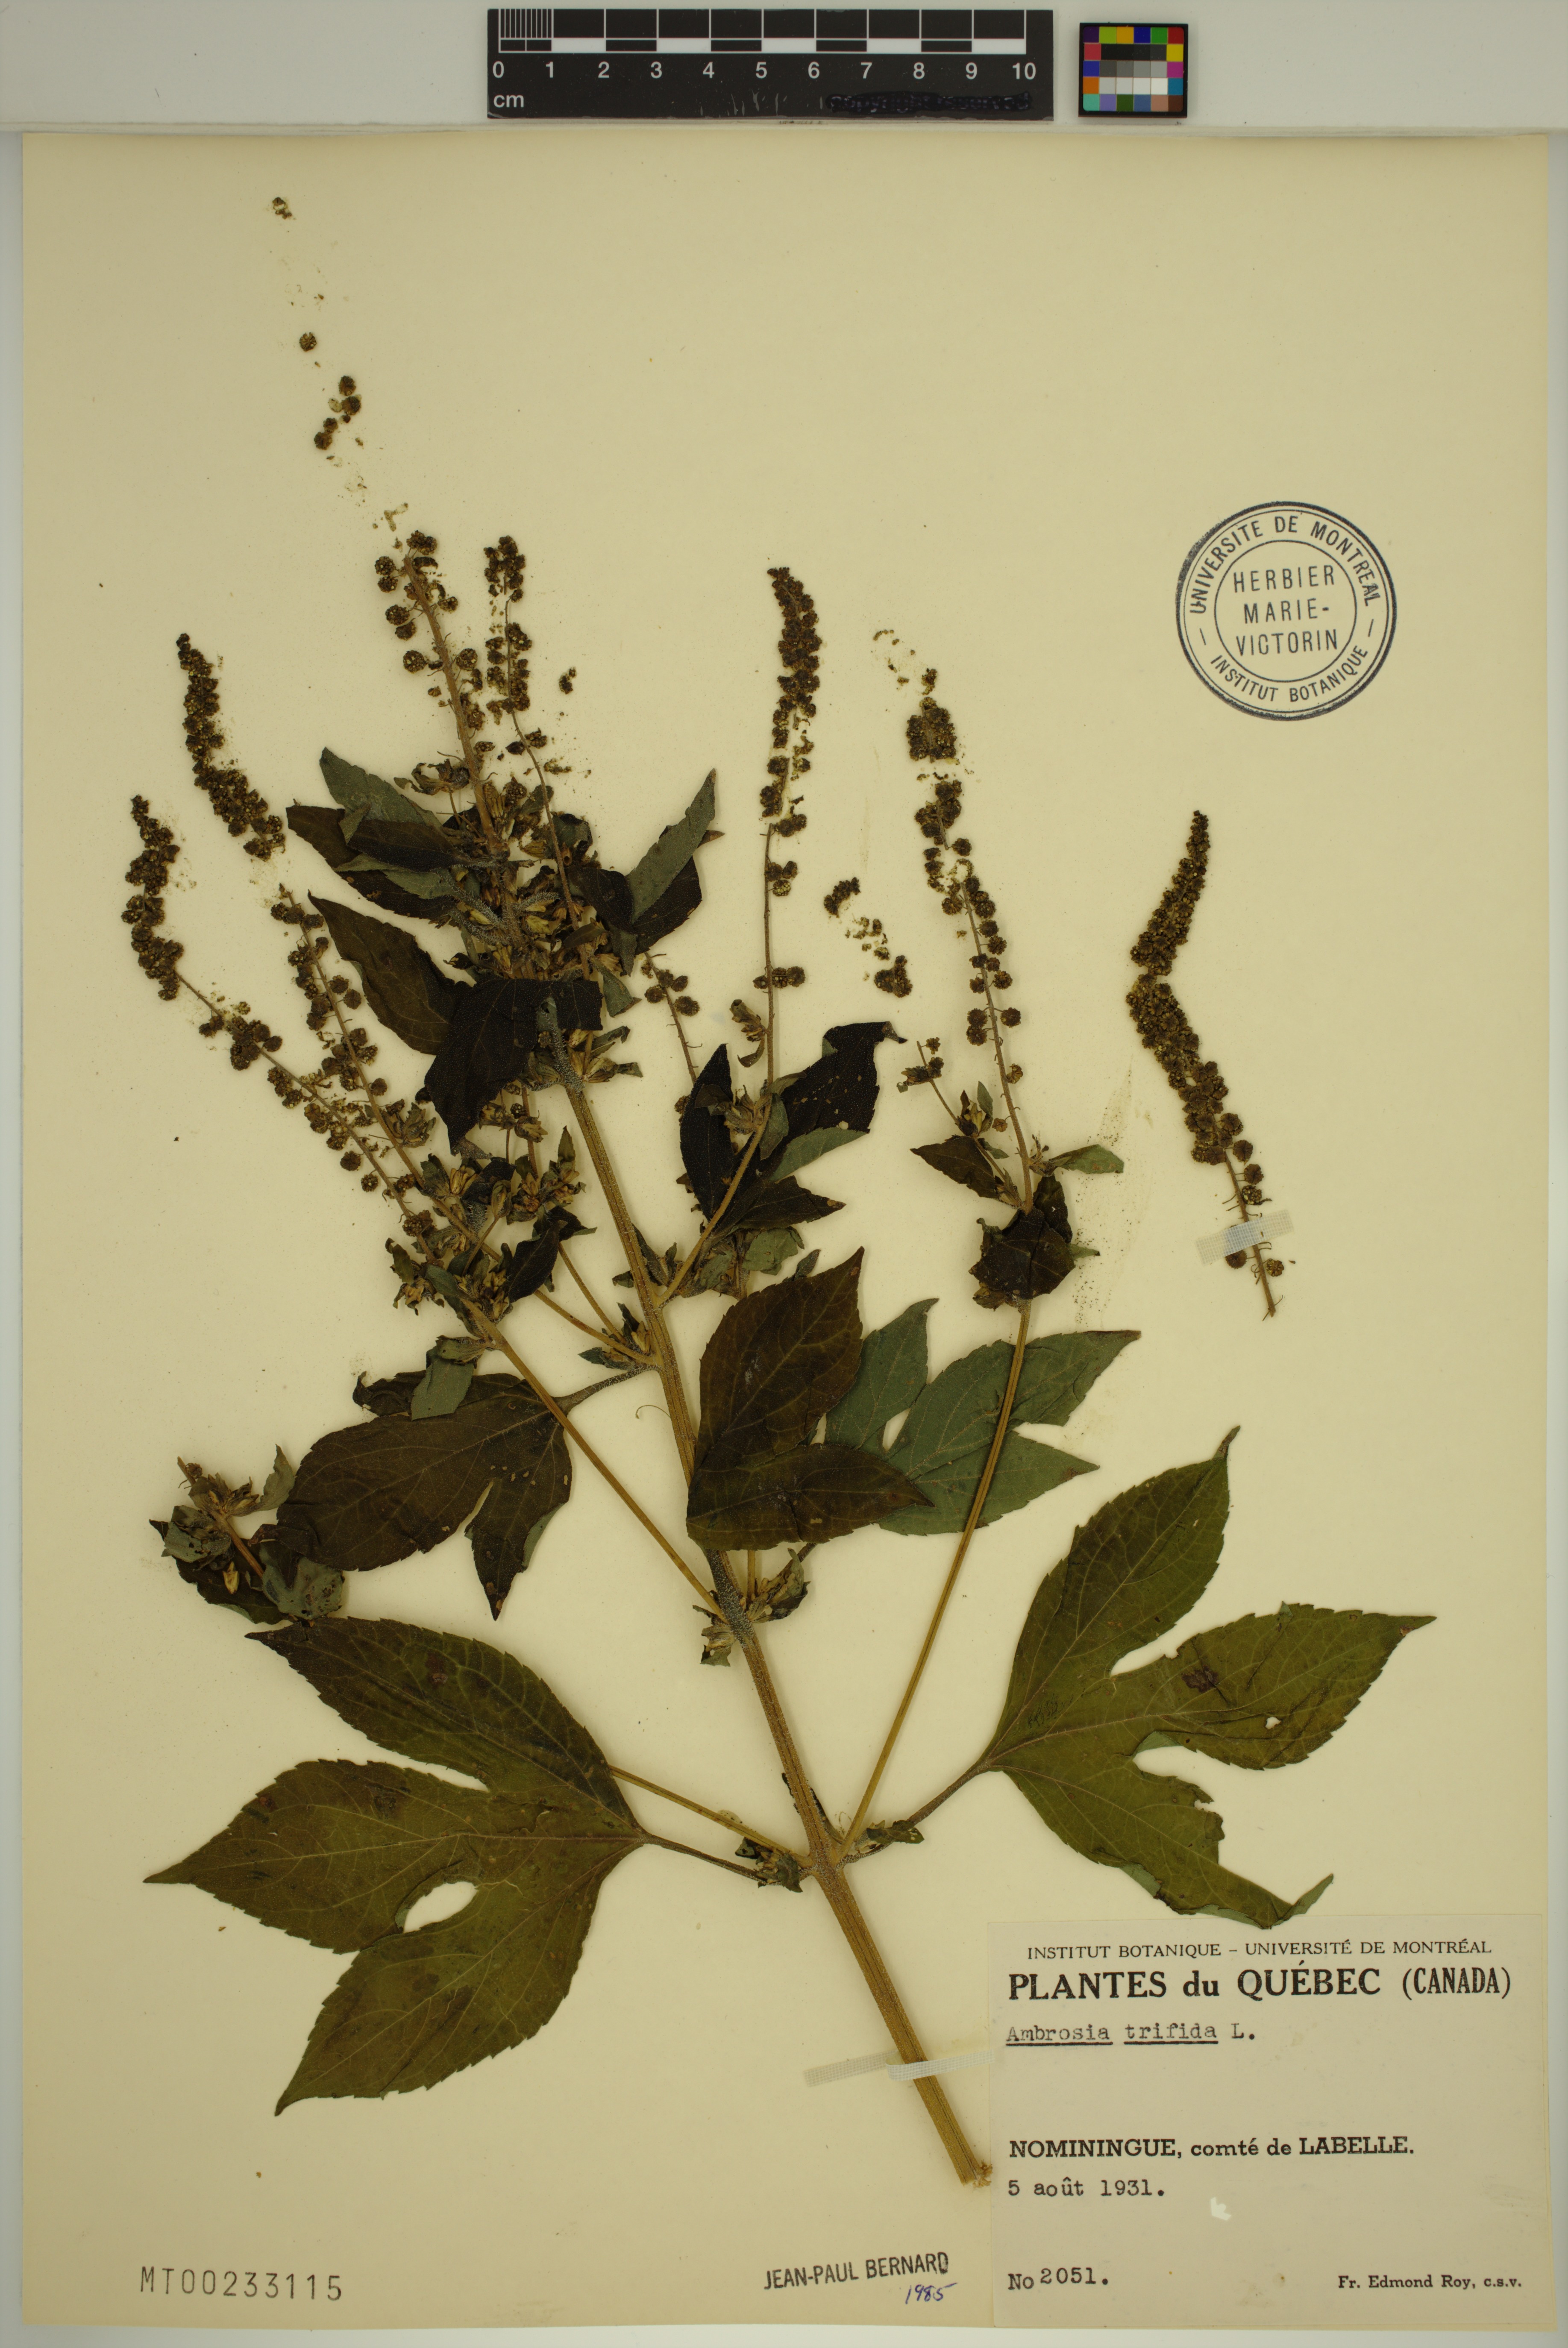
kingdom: Plantae
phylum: Tracheophyta
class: Magnoliopsida
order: Asterales
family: Asteraceae
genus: Ambrosia
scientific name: Ambrosia trifida
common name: Giant ragweed
